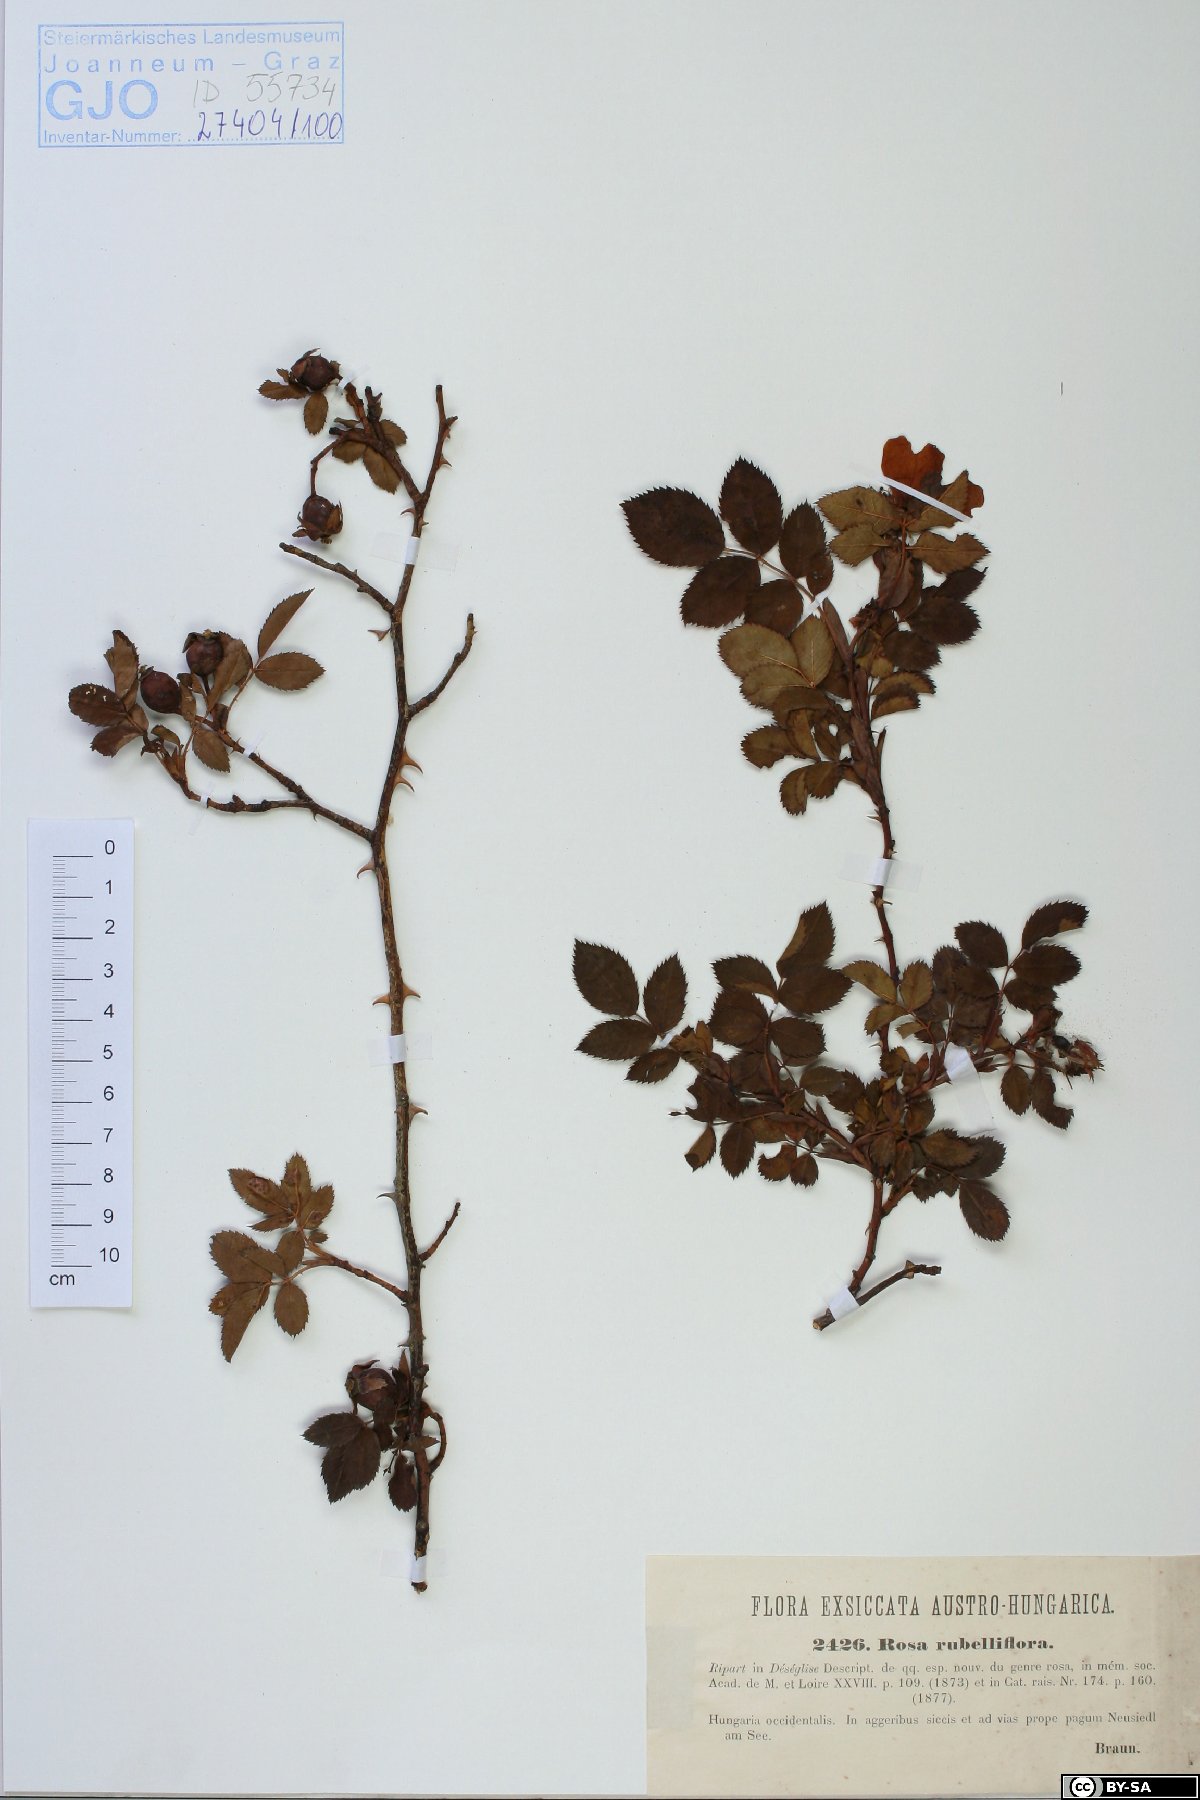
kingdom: Plantae
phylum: Tracheophyta
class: Magnoliopsida
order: Rosales
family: Rosaceae
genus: Rosa
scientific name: Rosa canina
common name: Dog rose
